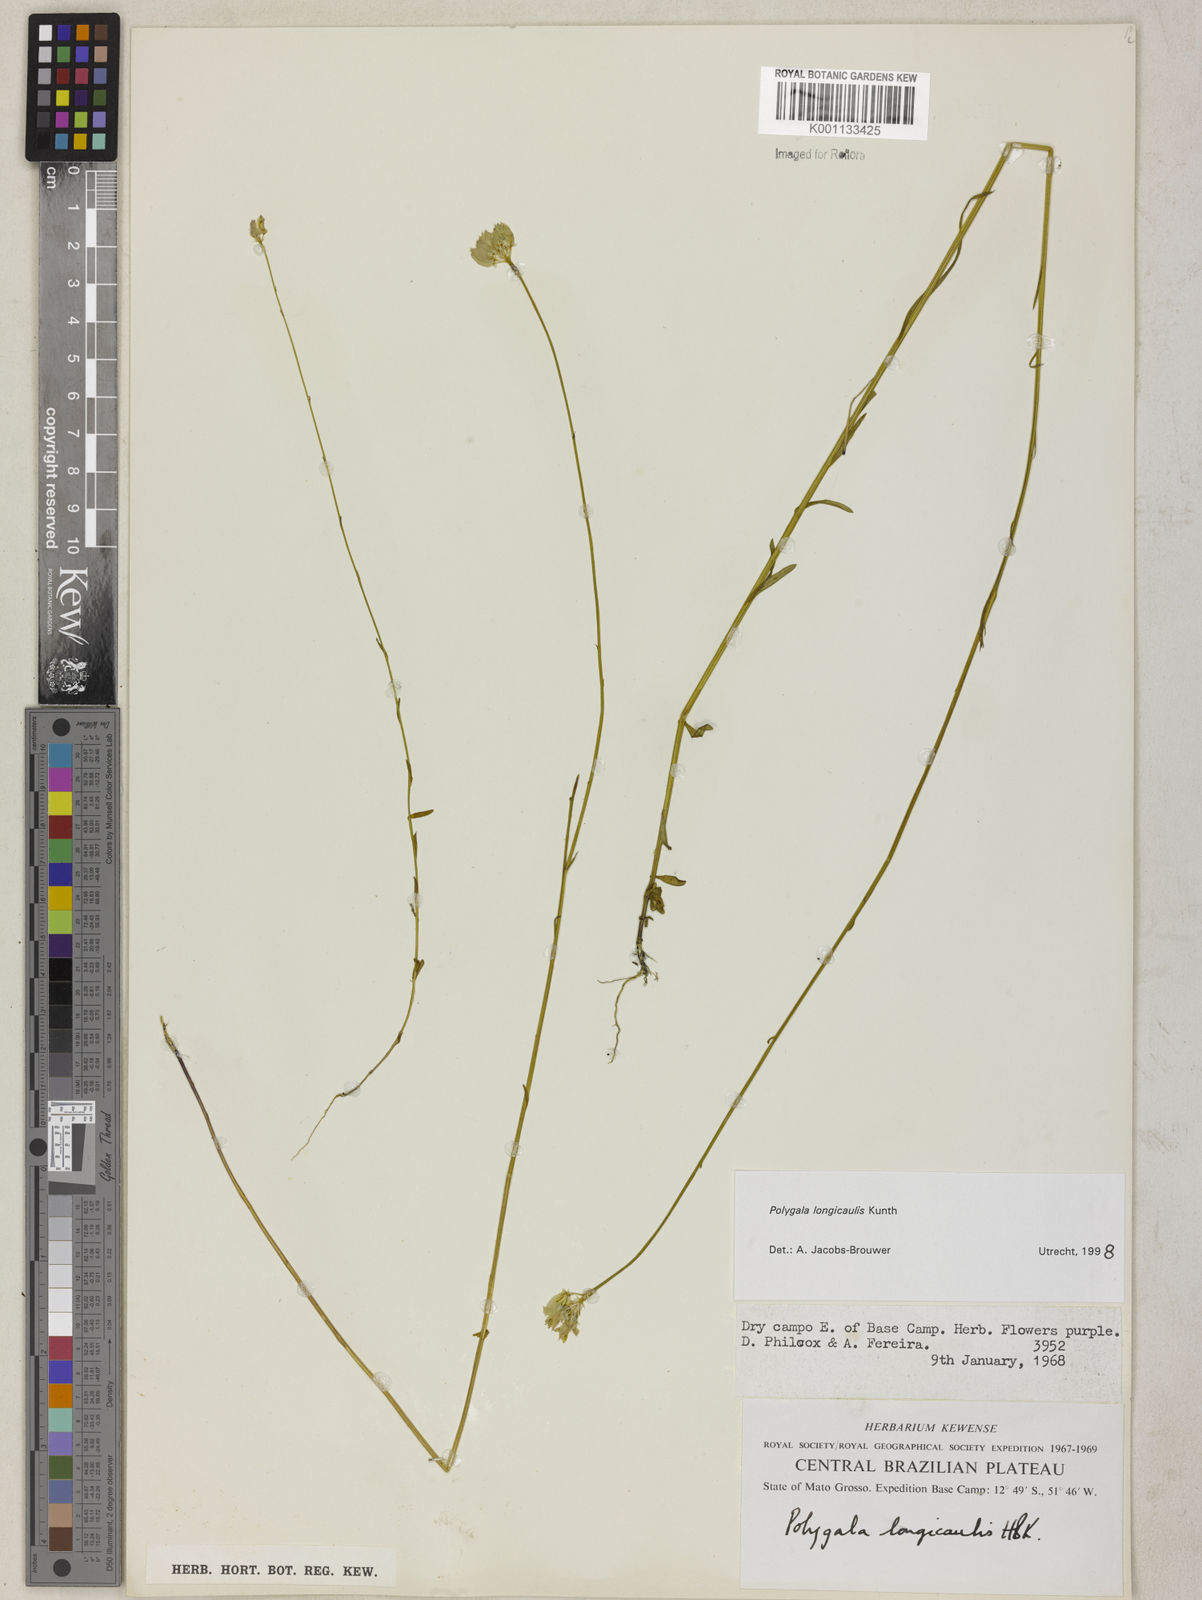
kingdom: Plantae
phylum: Tracheophyta
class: Magnoliopsida
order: Fabales
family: Polygalaceae
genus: Polygala
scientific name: Polygala longicaulis
